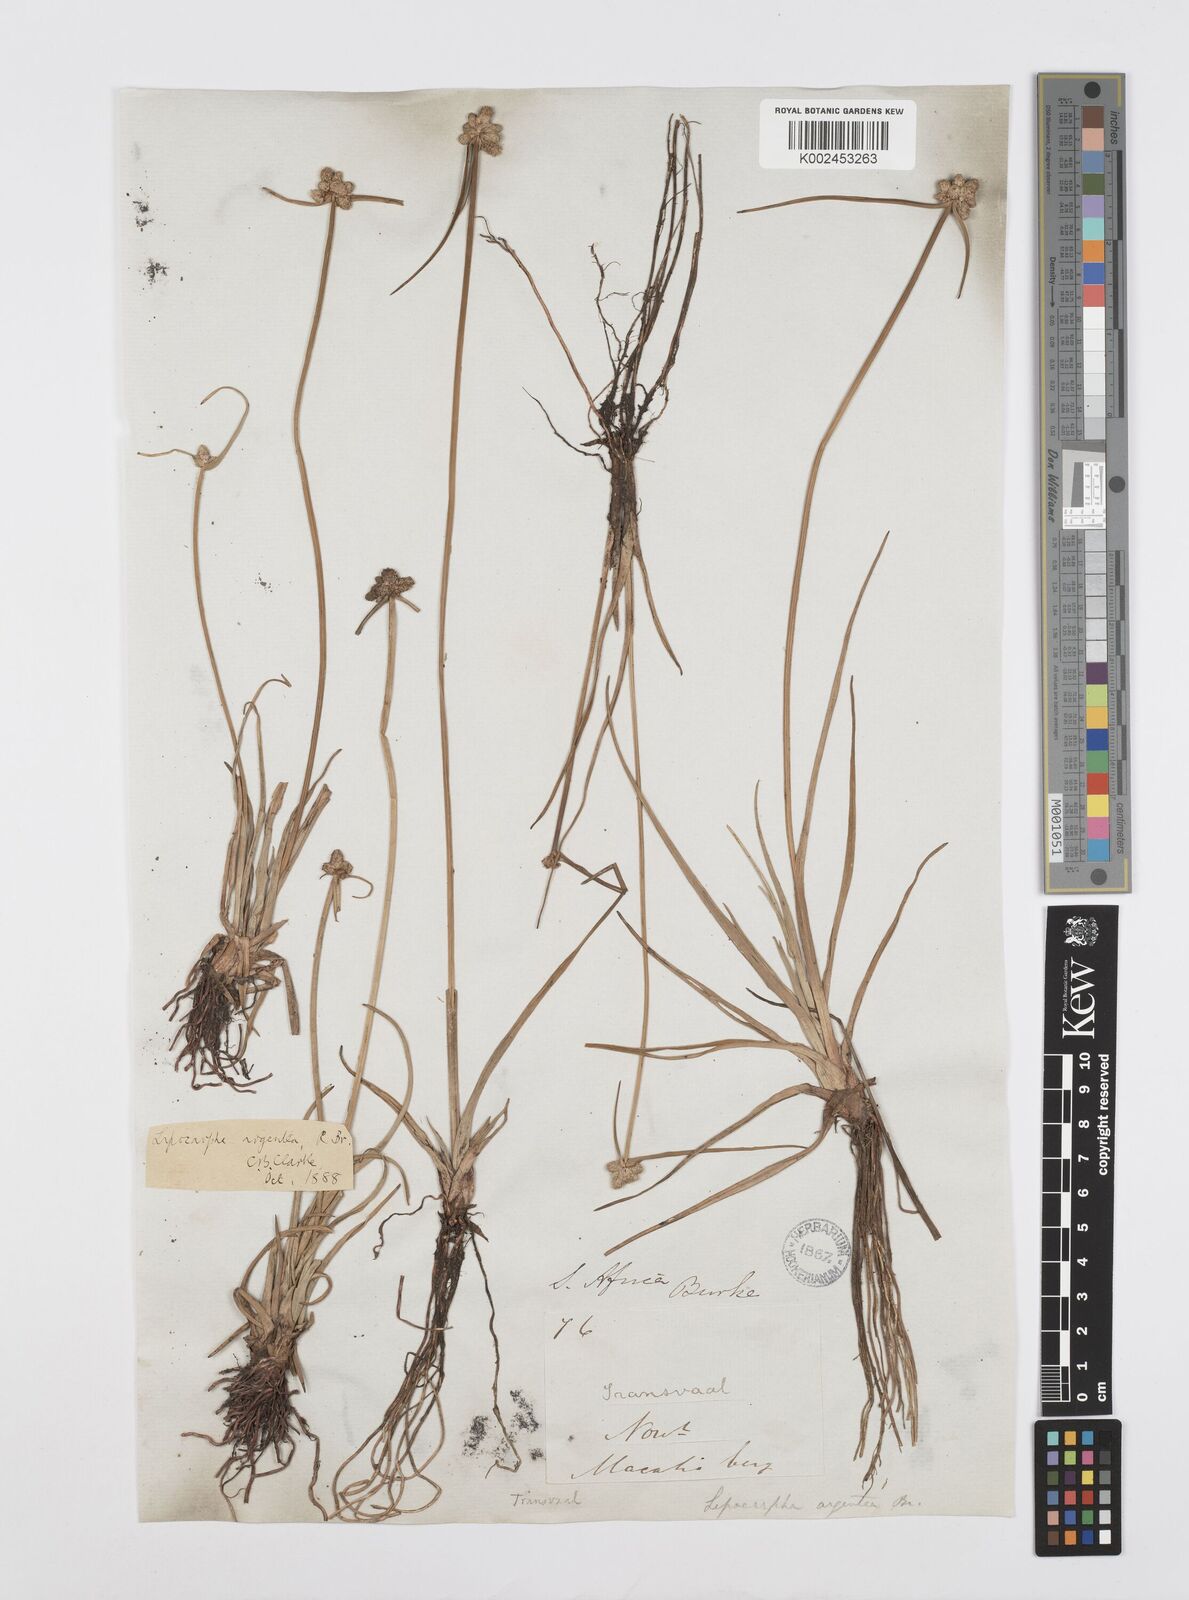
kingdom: Plantae
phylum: Tracheophyta
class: Liliopsida
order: Poales
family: Cyperaceae
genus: Cyperus
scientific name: Cyperus albescens
